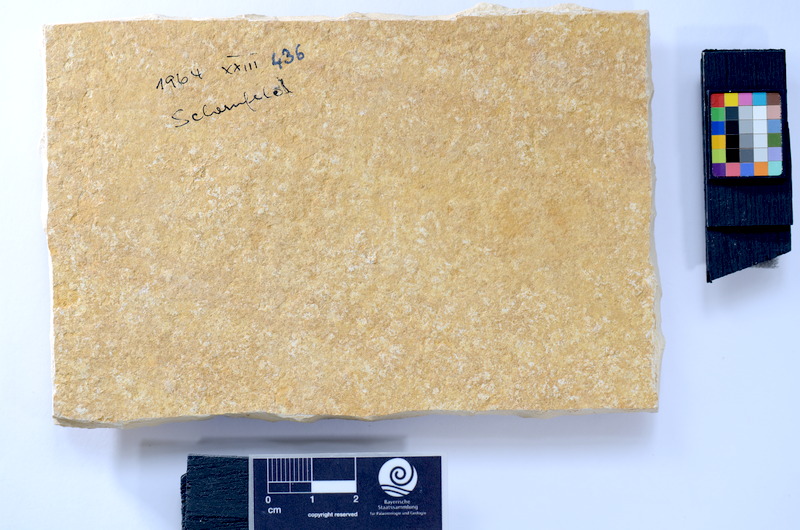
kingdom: Animalia
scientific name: Animalia
